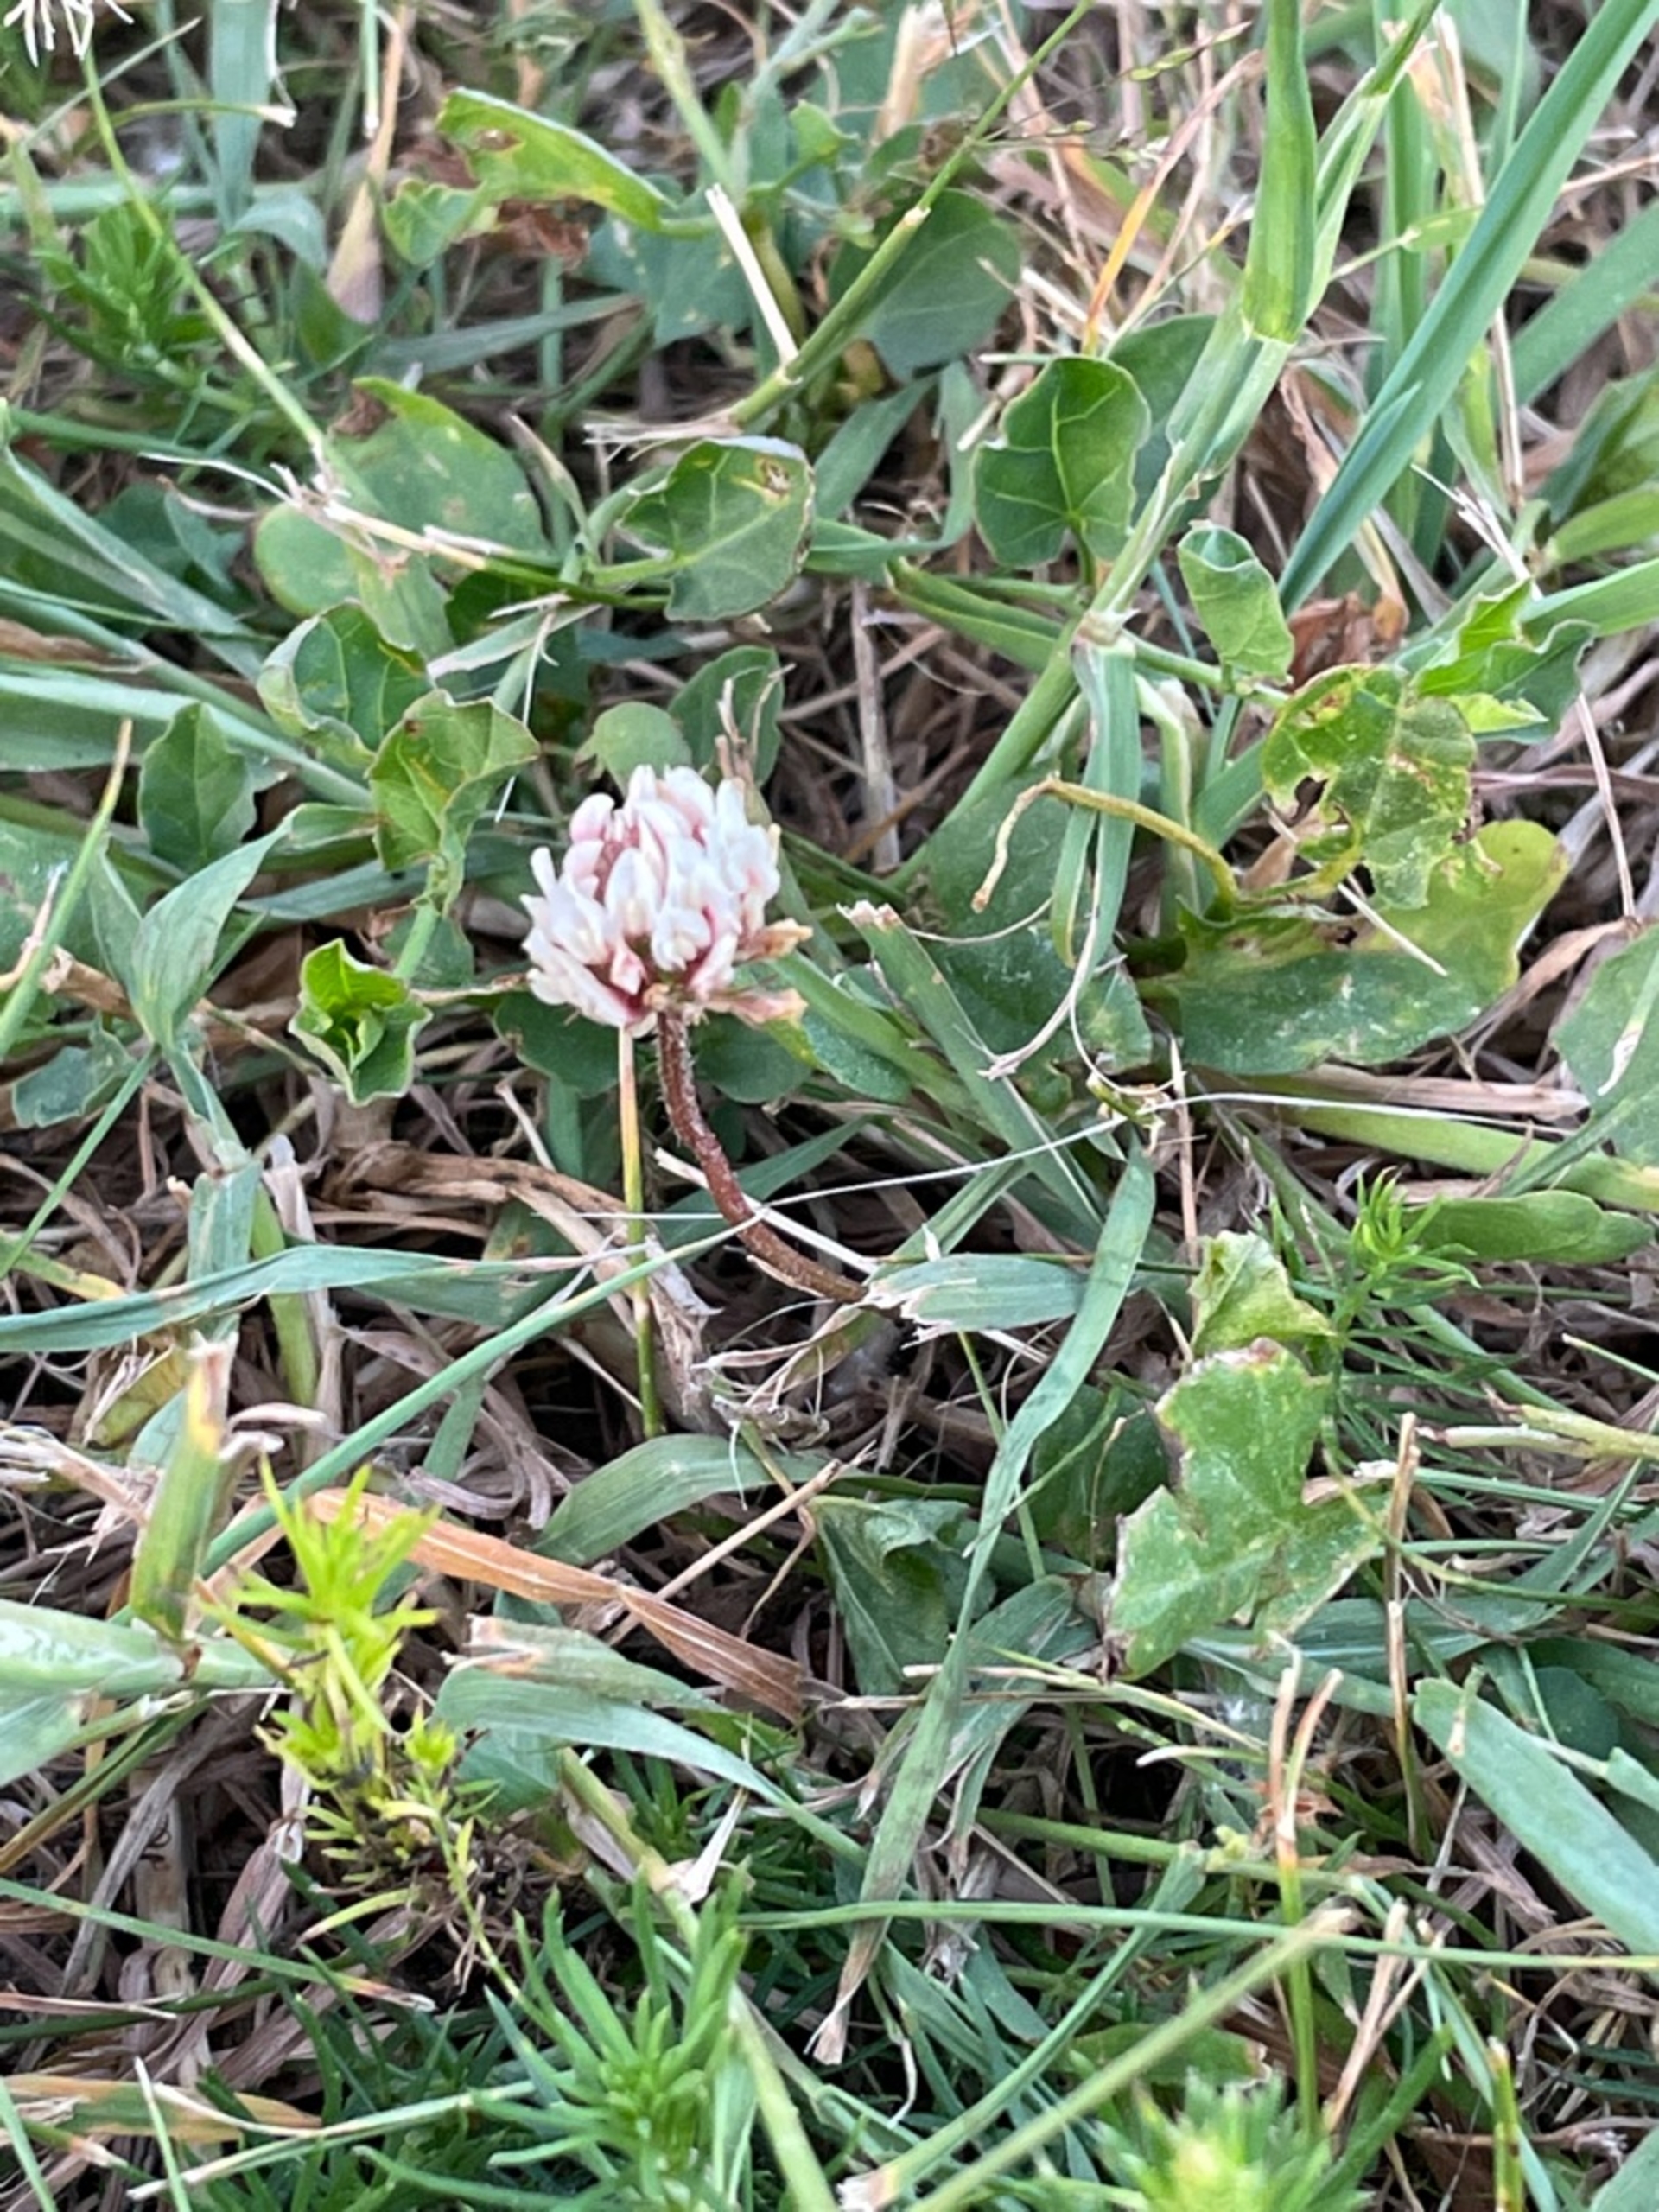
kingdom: Plantae
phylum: Tracheophyta
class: Magnoliopsida
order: Fabales
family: Fabaceae
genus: Trifolium
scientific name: Trifolium repens
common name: Hvid-kløver
